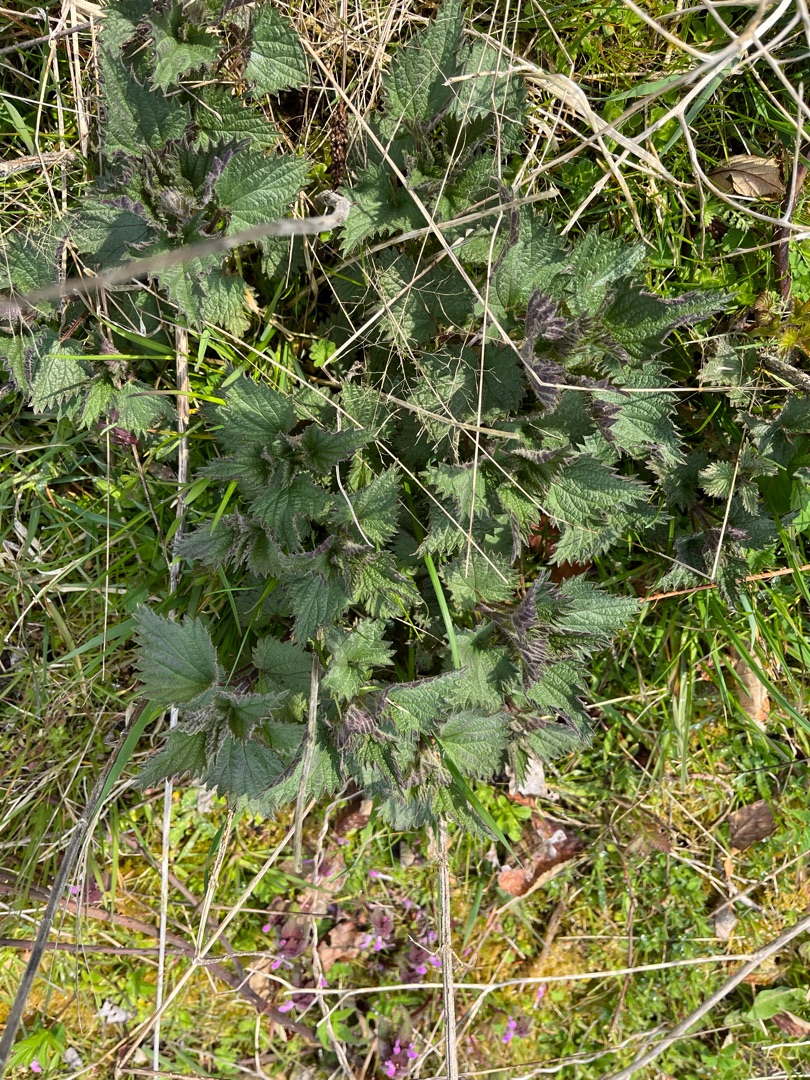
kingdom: Plantae
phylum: Tracheophyta
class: Magnoliopsida
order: Rosales
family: Urticaceae
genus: Urtica
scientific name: Urtica dioica
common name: Stor nælde
